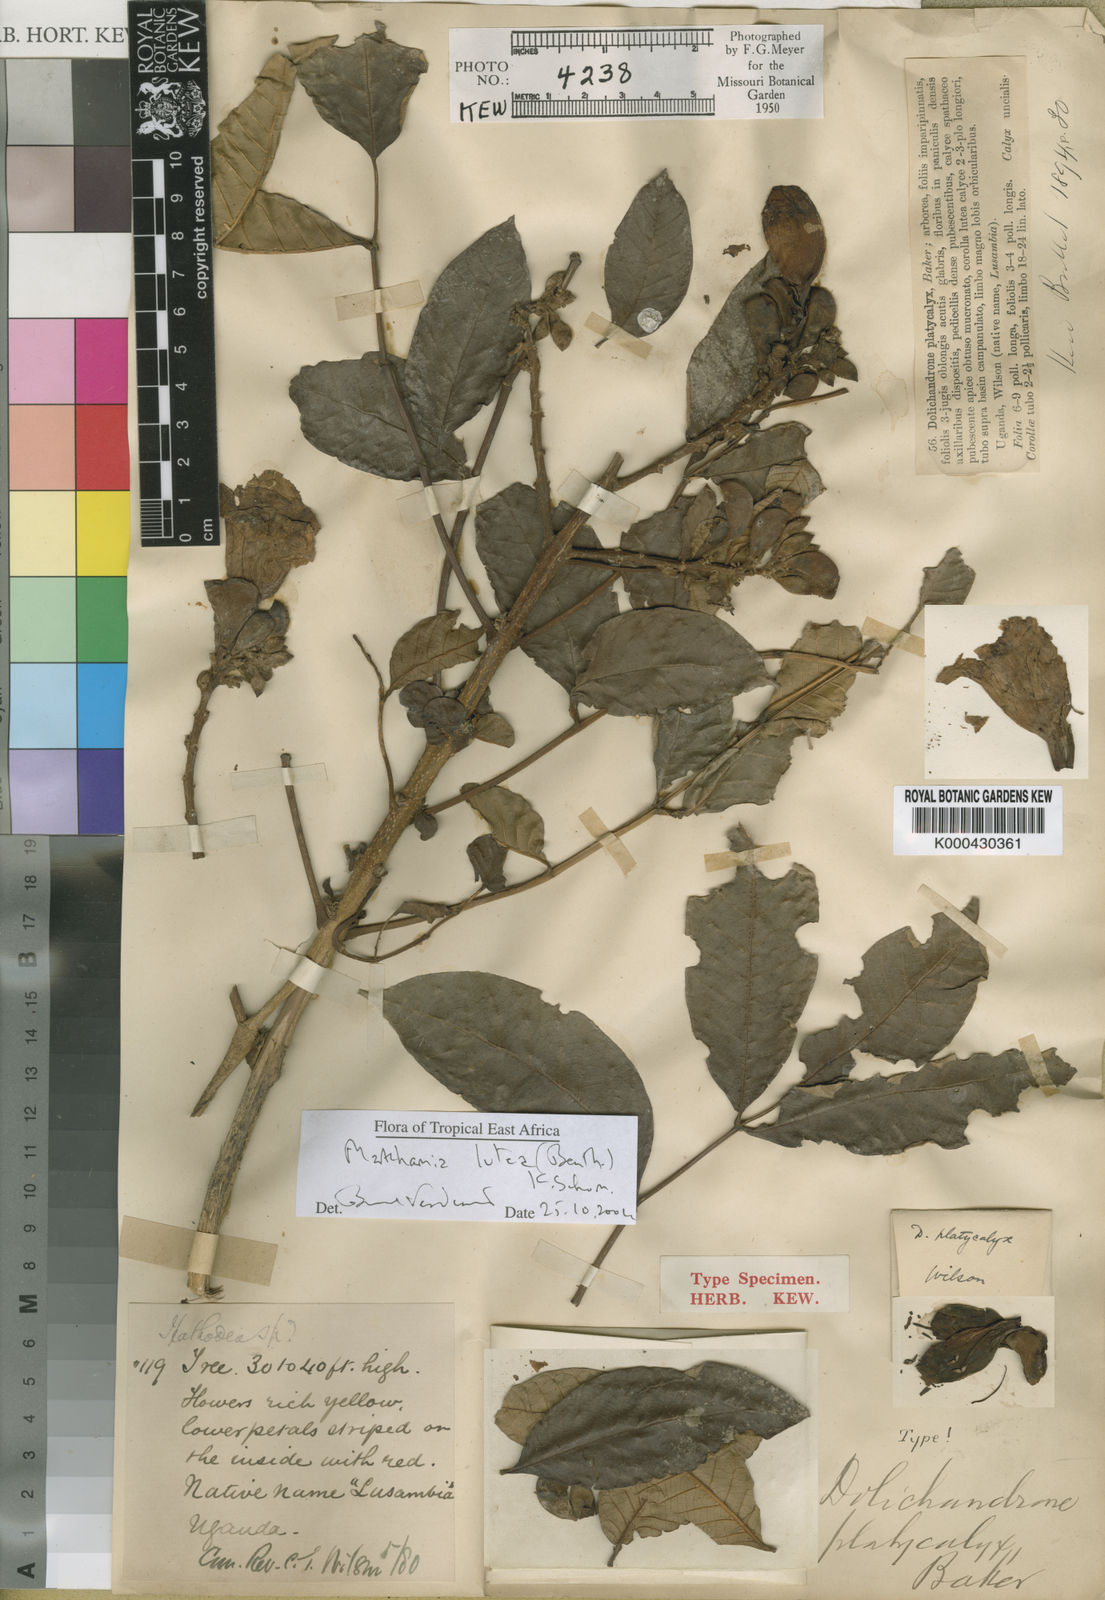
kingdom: Plantae
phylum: Tracheophyta
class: Magnoliopsida
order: Lamiales
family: Bignoniaceae
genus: Markhamia
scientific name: Markhamia lutea
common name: Siala
